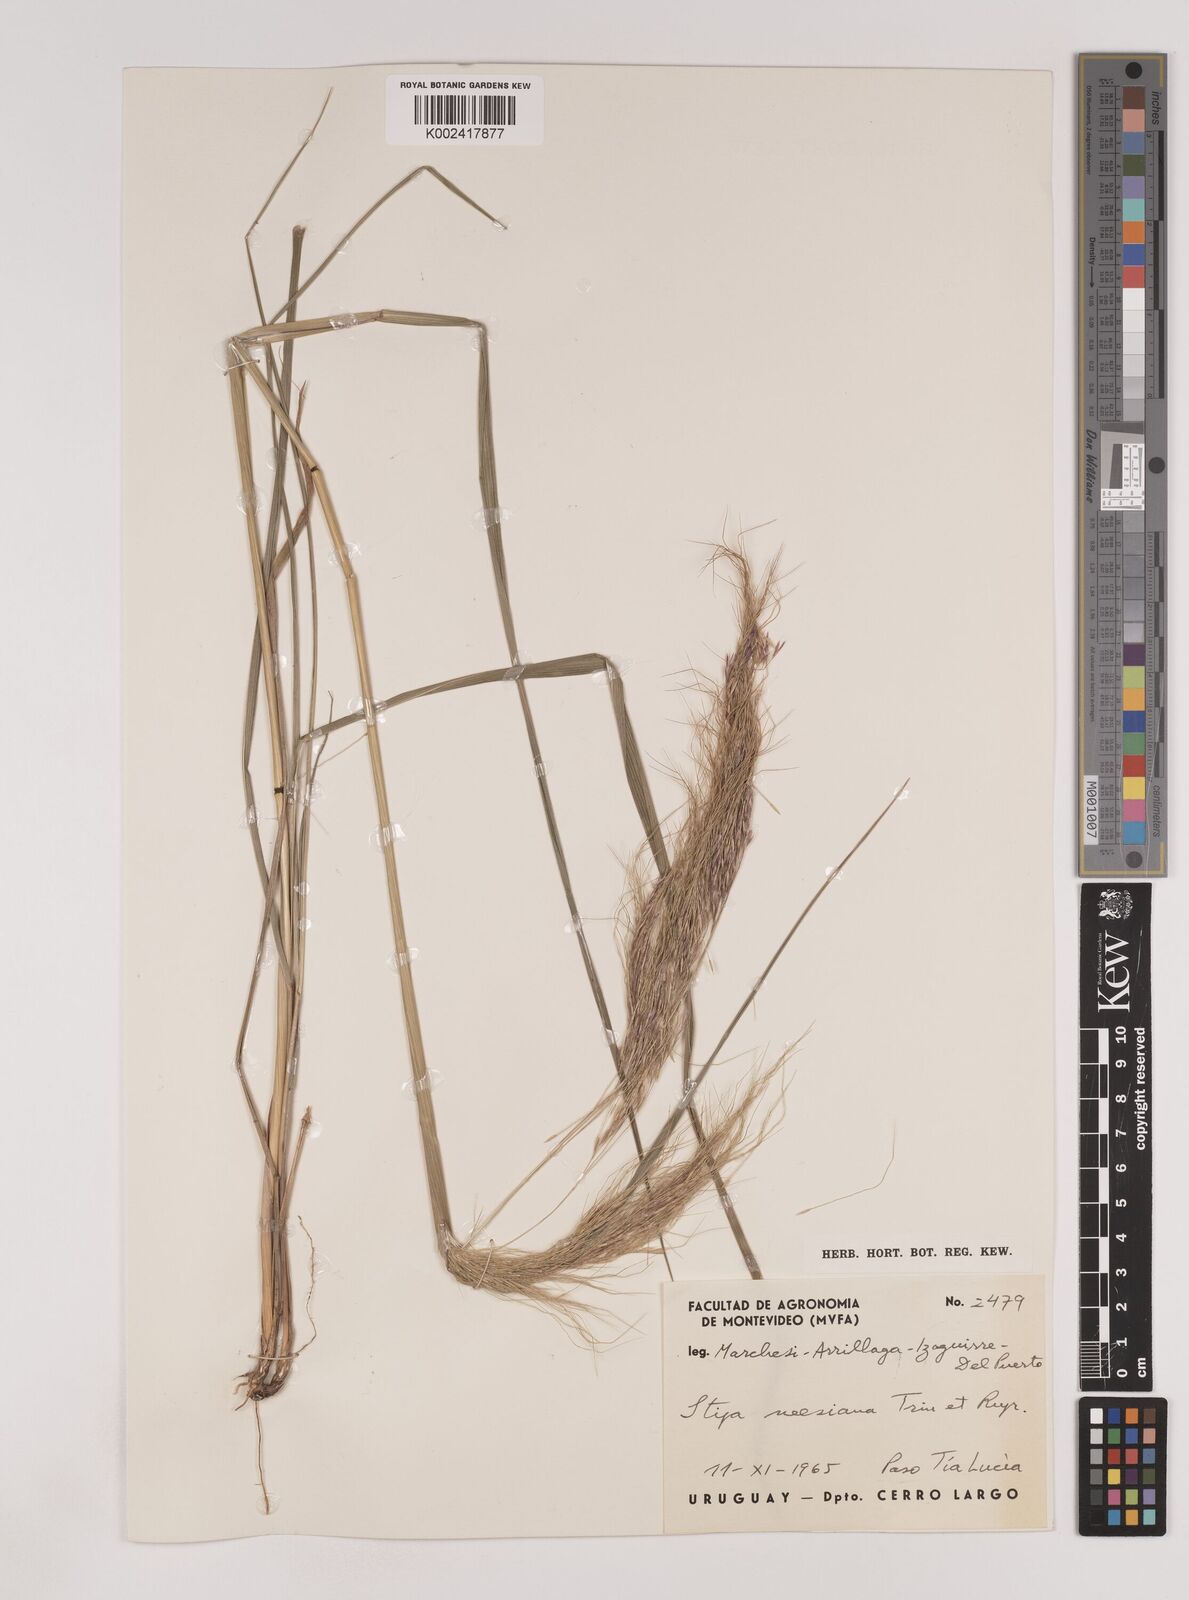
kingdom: Plantae
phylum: Tracheophyta
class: Liliopsida
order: Poales
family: Poaceae
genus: Nassella
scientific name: Nassella neesiana
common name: American needle-grass
